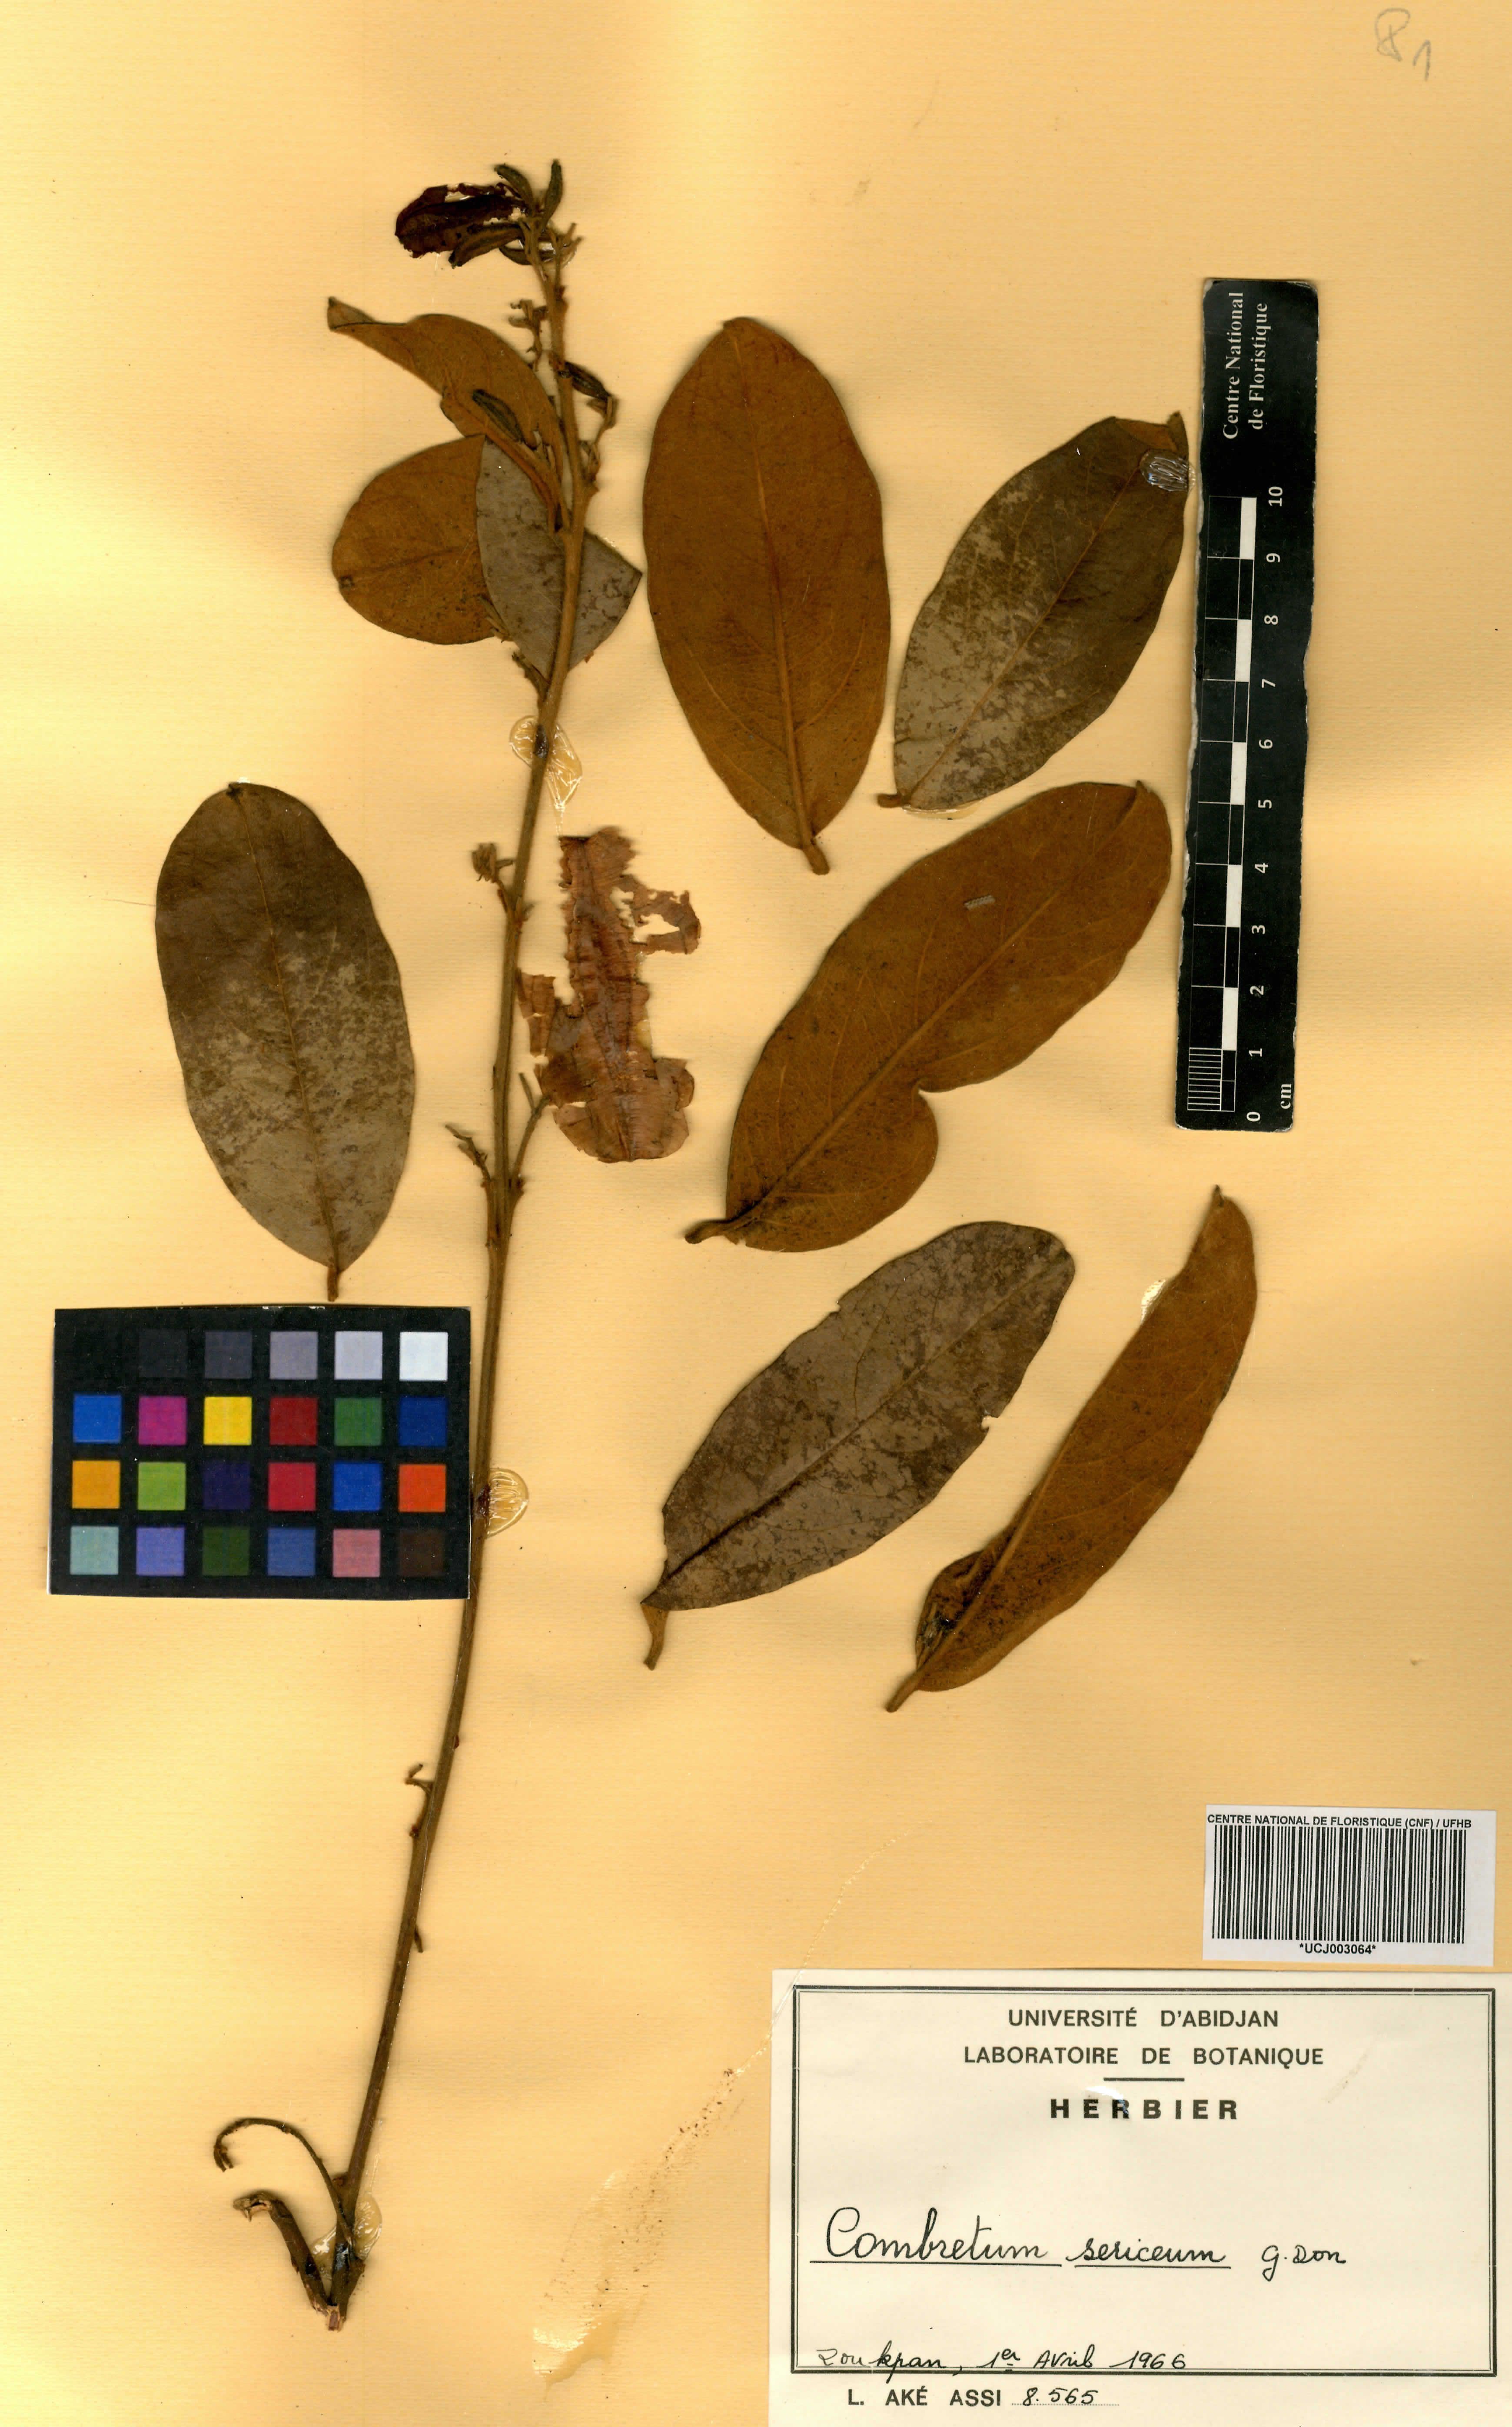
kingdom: Plantae
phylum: Tracheophyta
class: Magnoliopsida
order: Myrtales
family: Combretaceae
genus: Combretum
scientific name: Combretum sericeum
